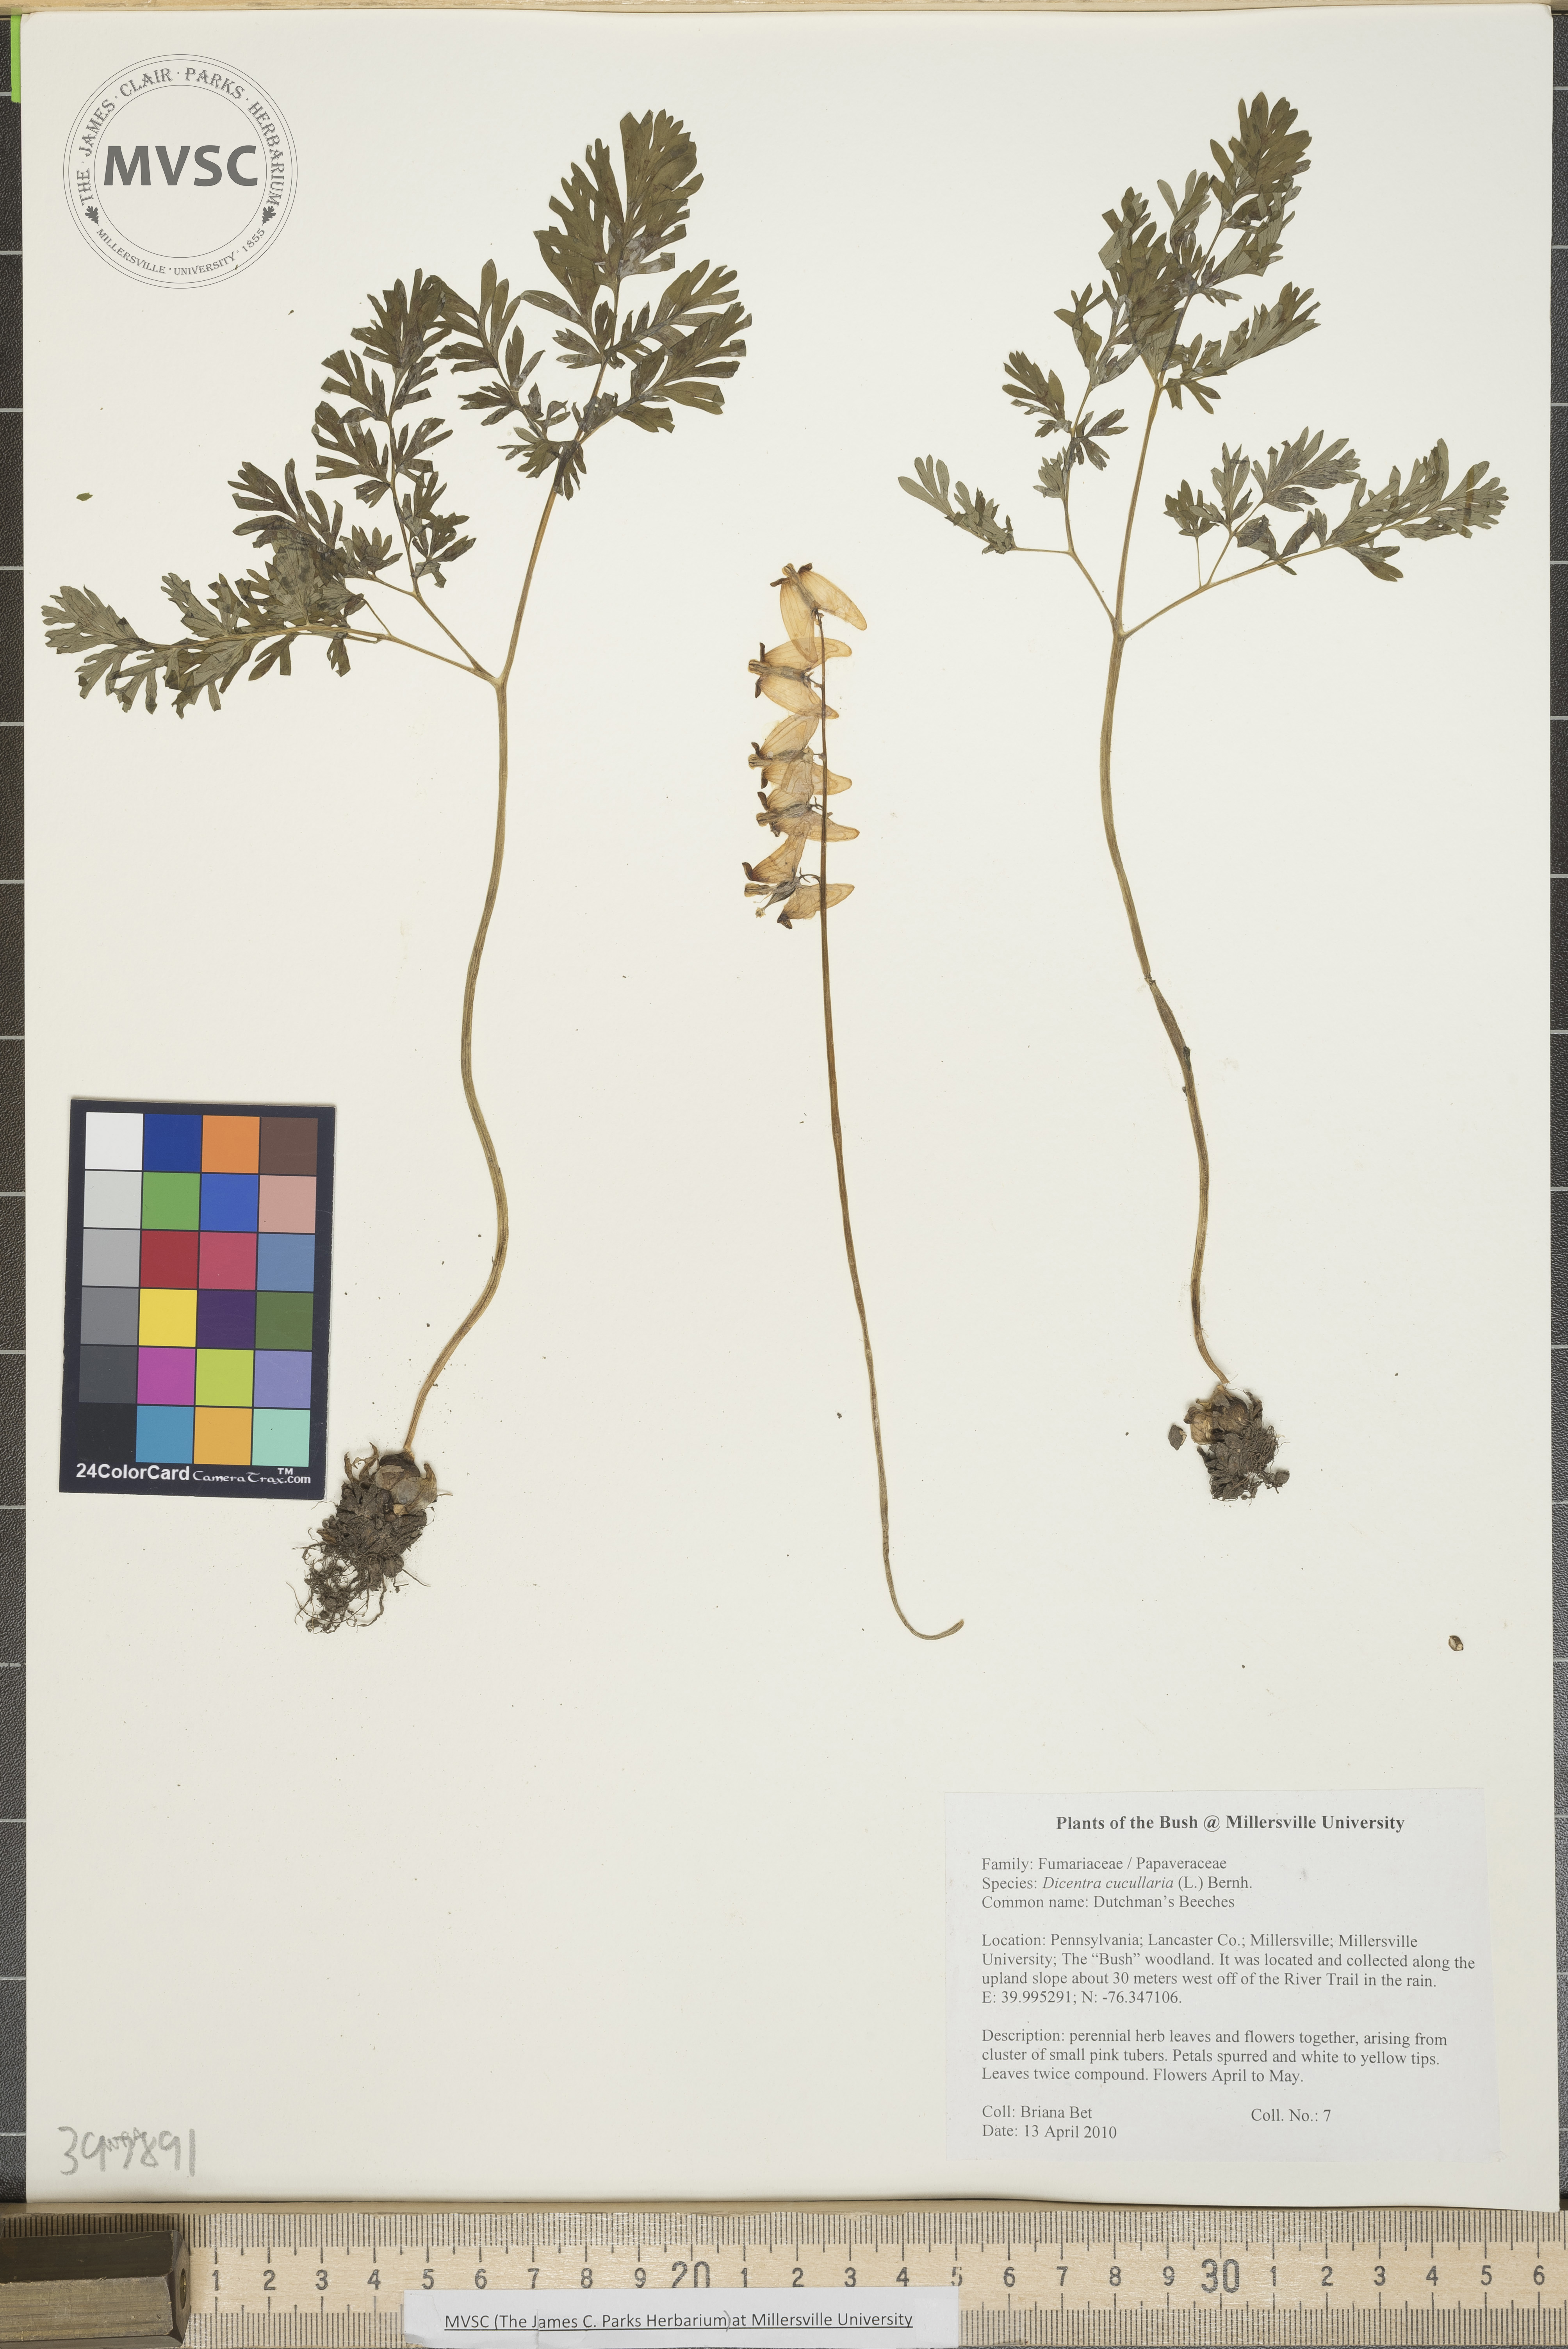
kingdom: Plantae
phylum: Tracheophyta
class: Magnoliopsida
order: Ranunculales
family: Papaveraceae
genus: Dicentra
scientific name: Dicentra cucullaria
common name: Dutchman's-breeches
